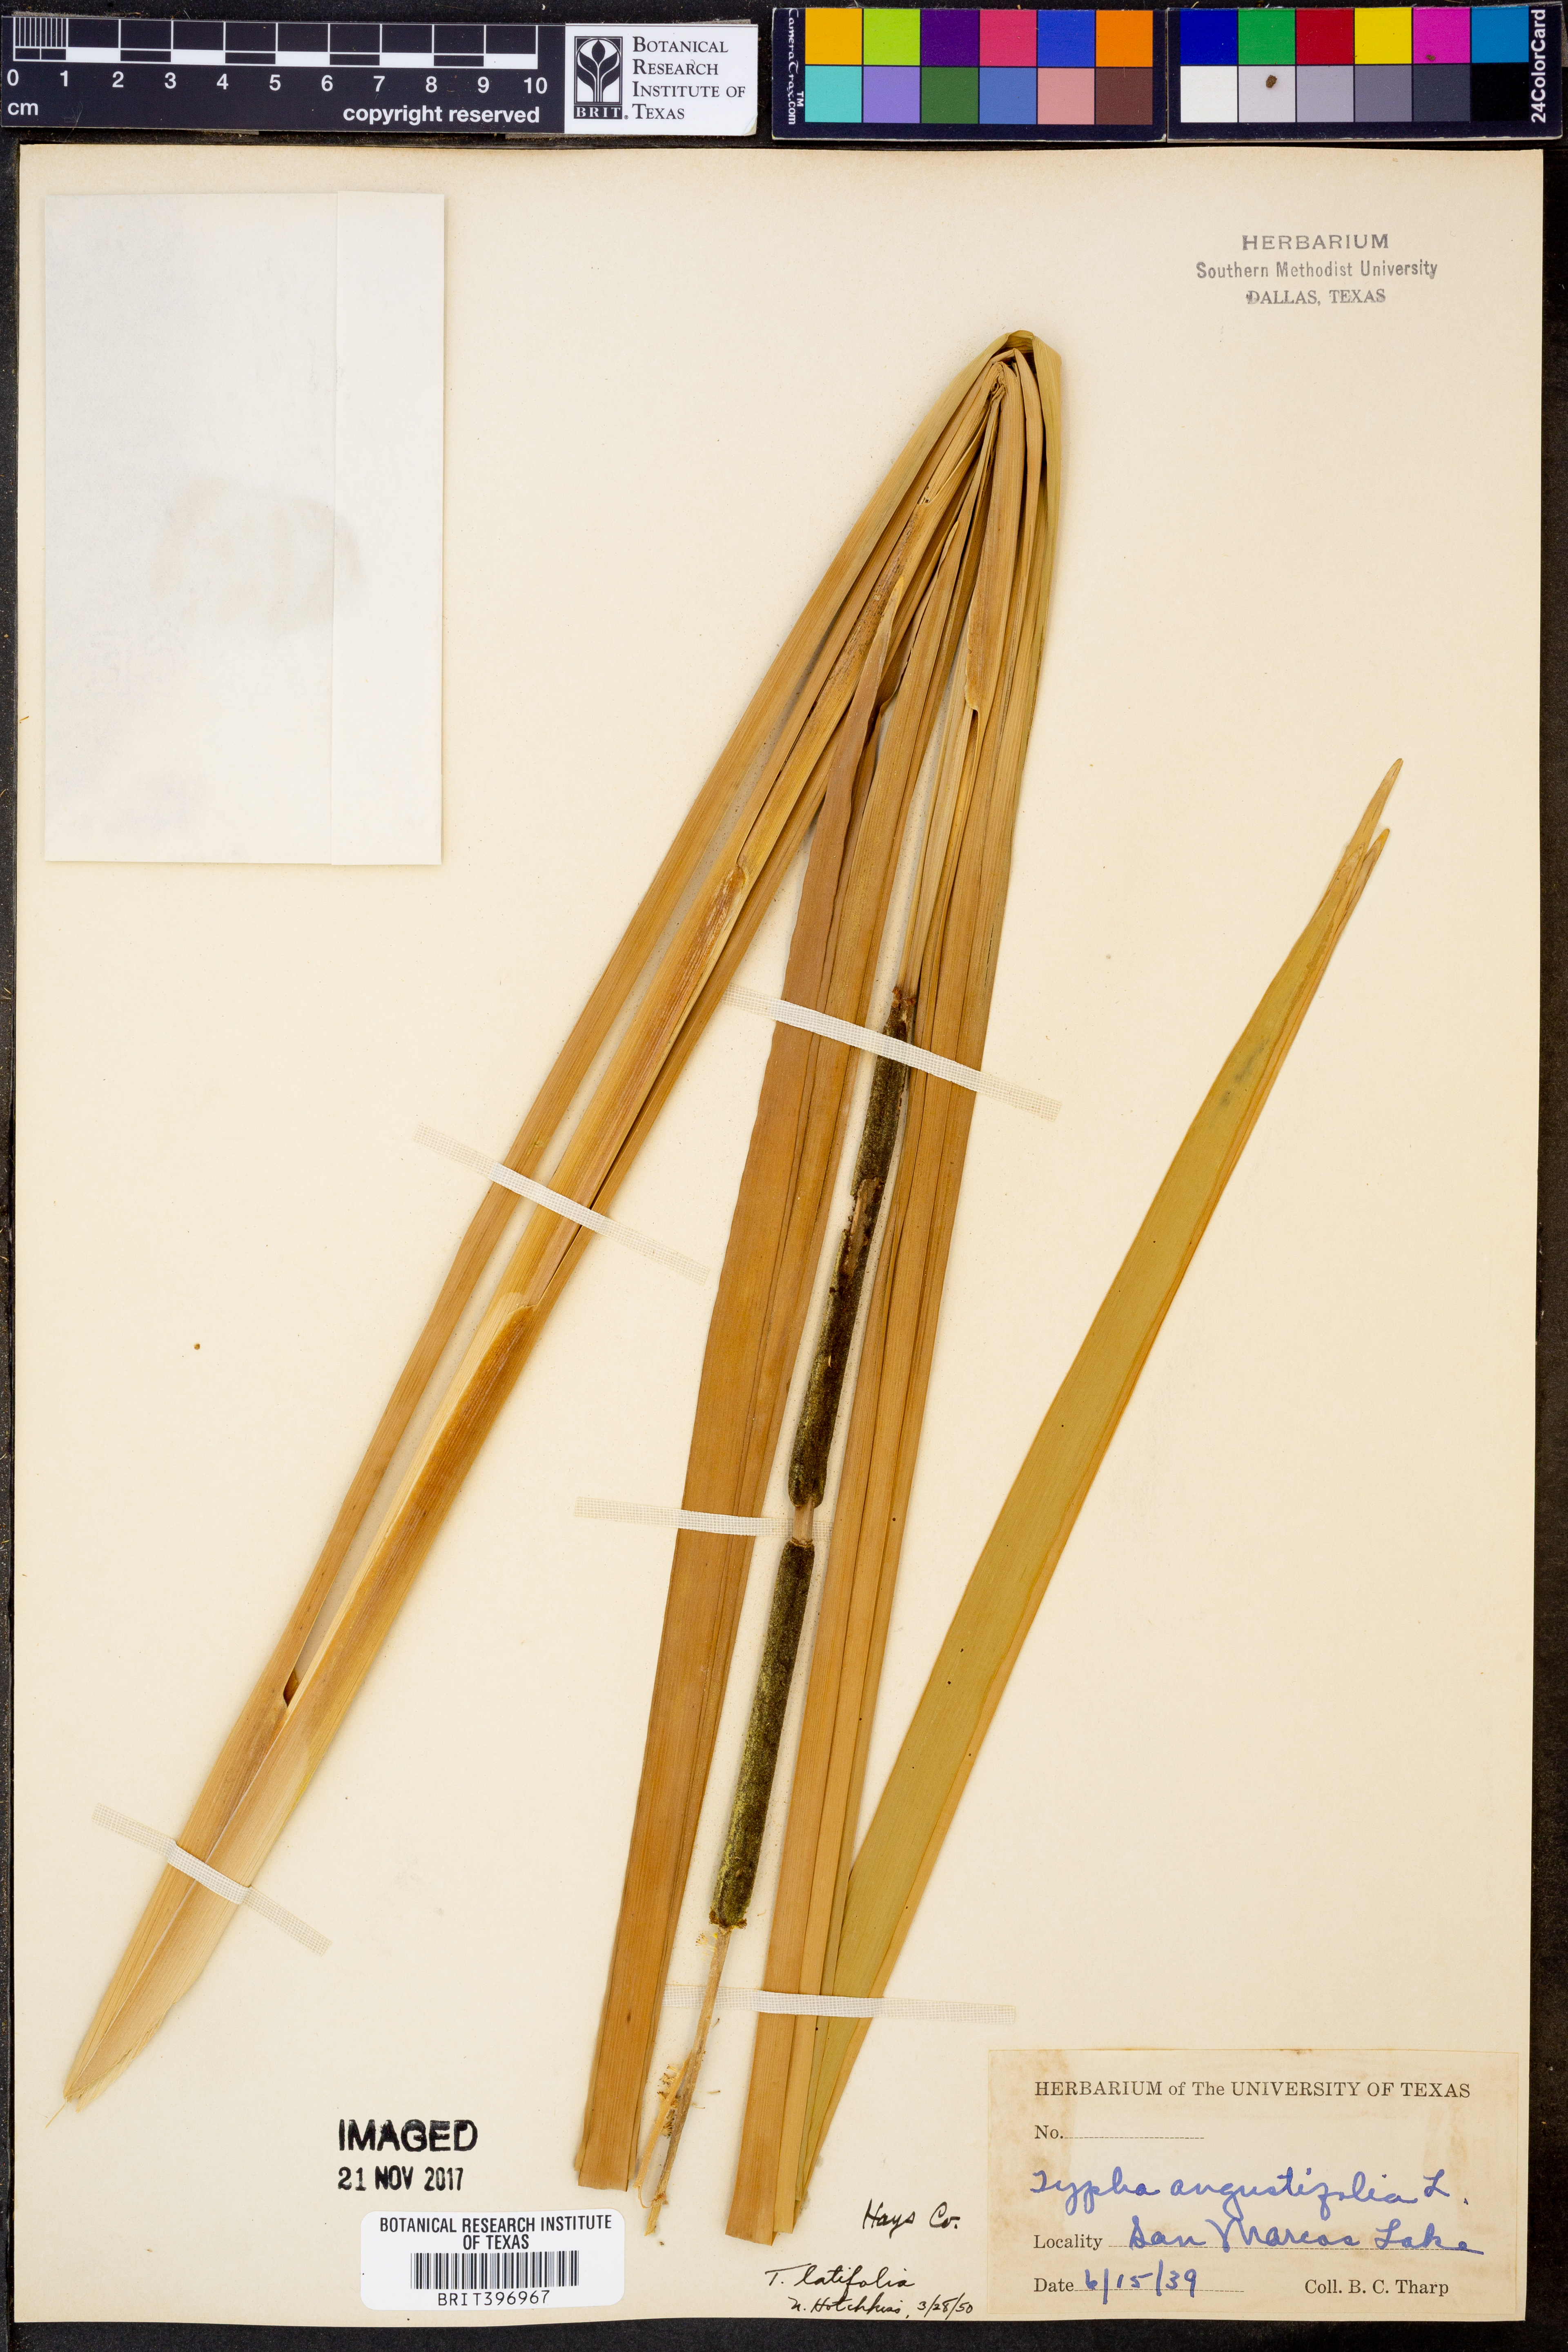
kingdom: Plantae
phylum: Tracheophyta
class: Liliopsida
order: Poales
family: Typhaceae
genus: Typha
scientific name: Typha latifolia
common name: Broadleaf cattail
